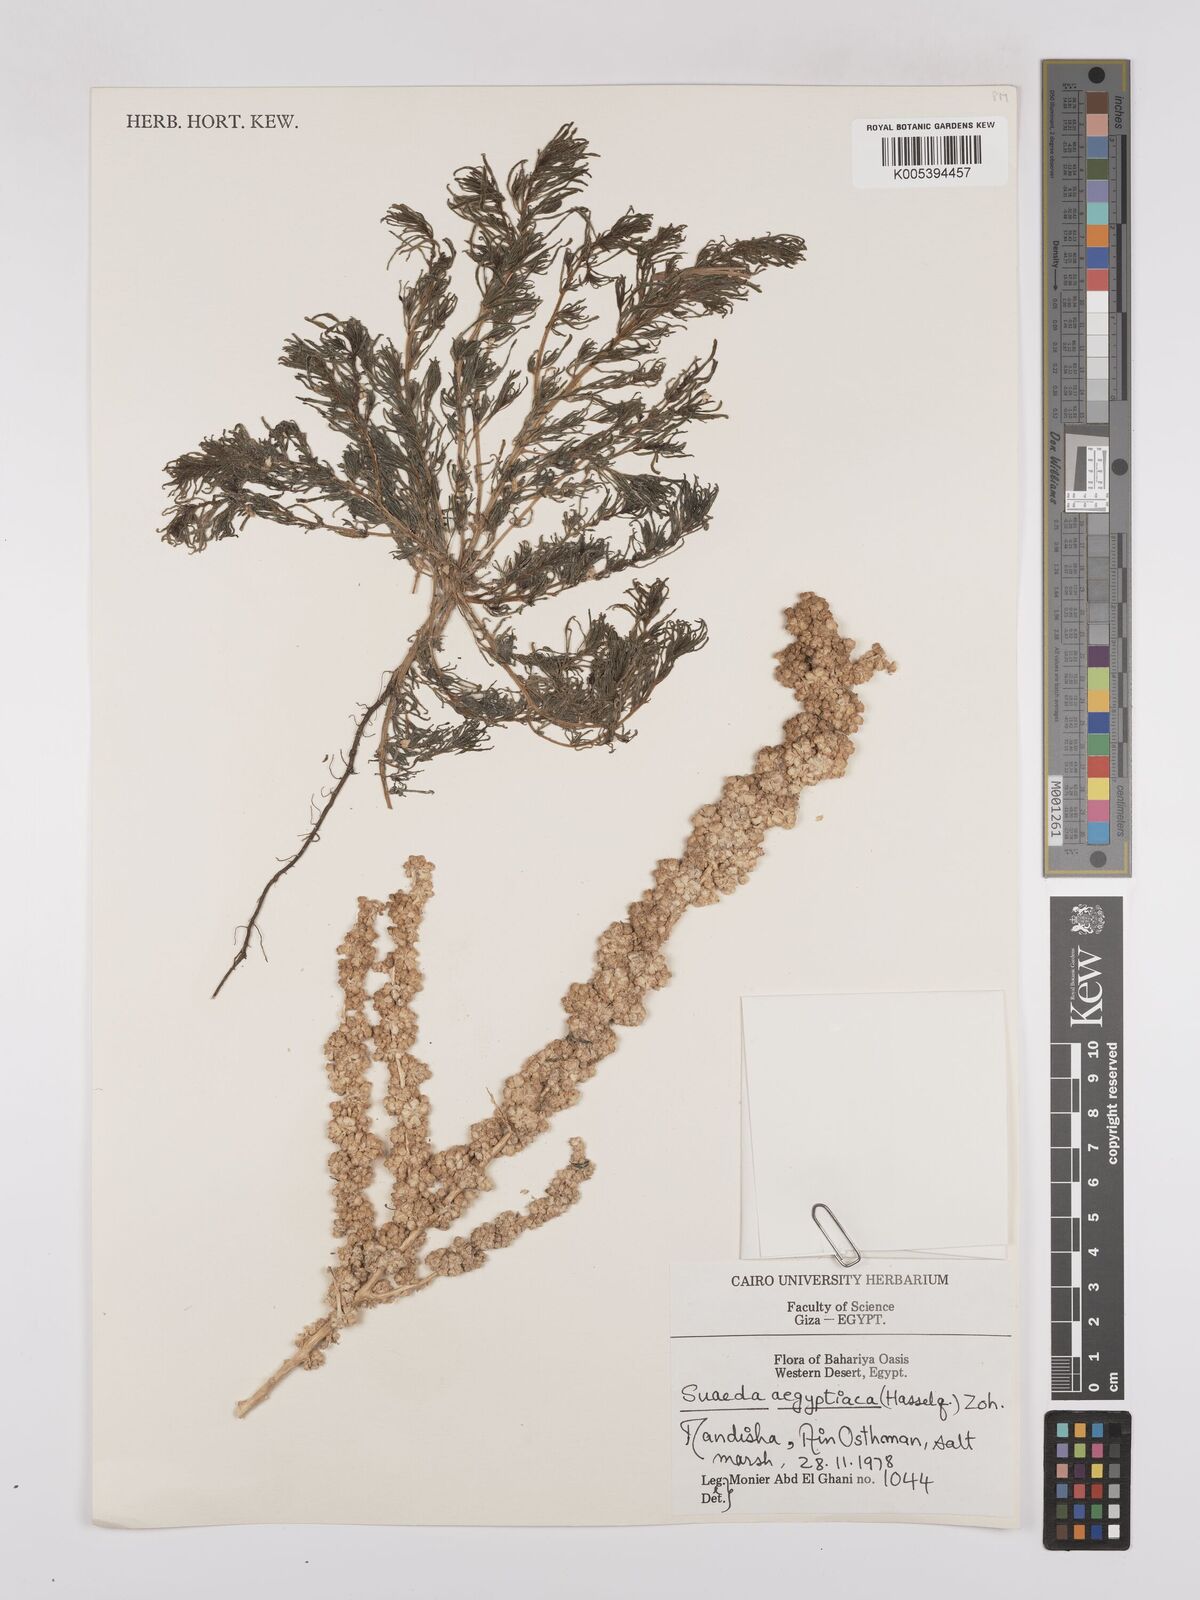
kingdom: Plantae
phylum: Tracheophyta
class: Magnoliopsida
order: Caryophyllales
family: Amaranthaceae
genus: Suaeda
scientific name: Suaeda aegyptiaca
